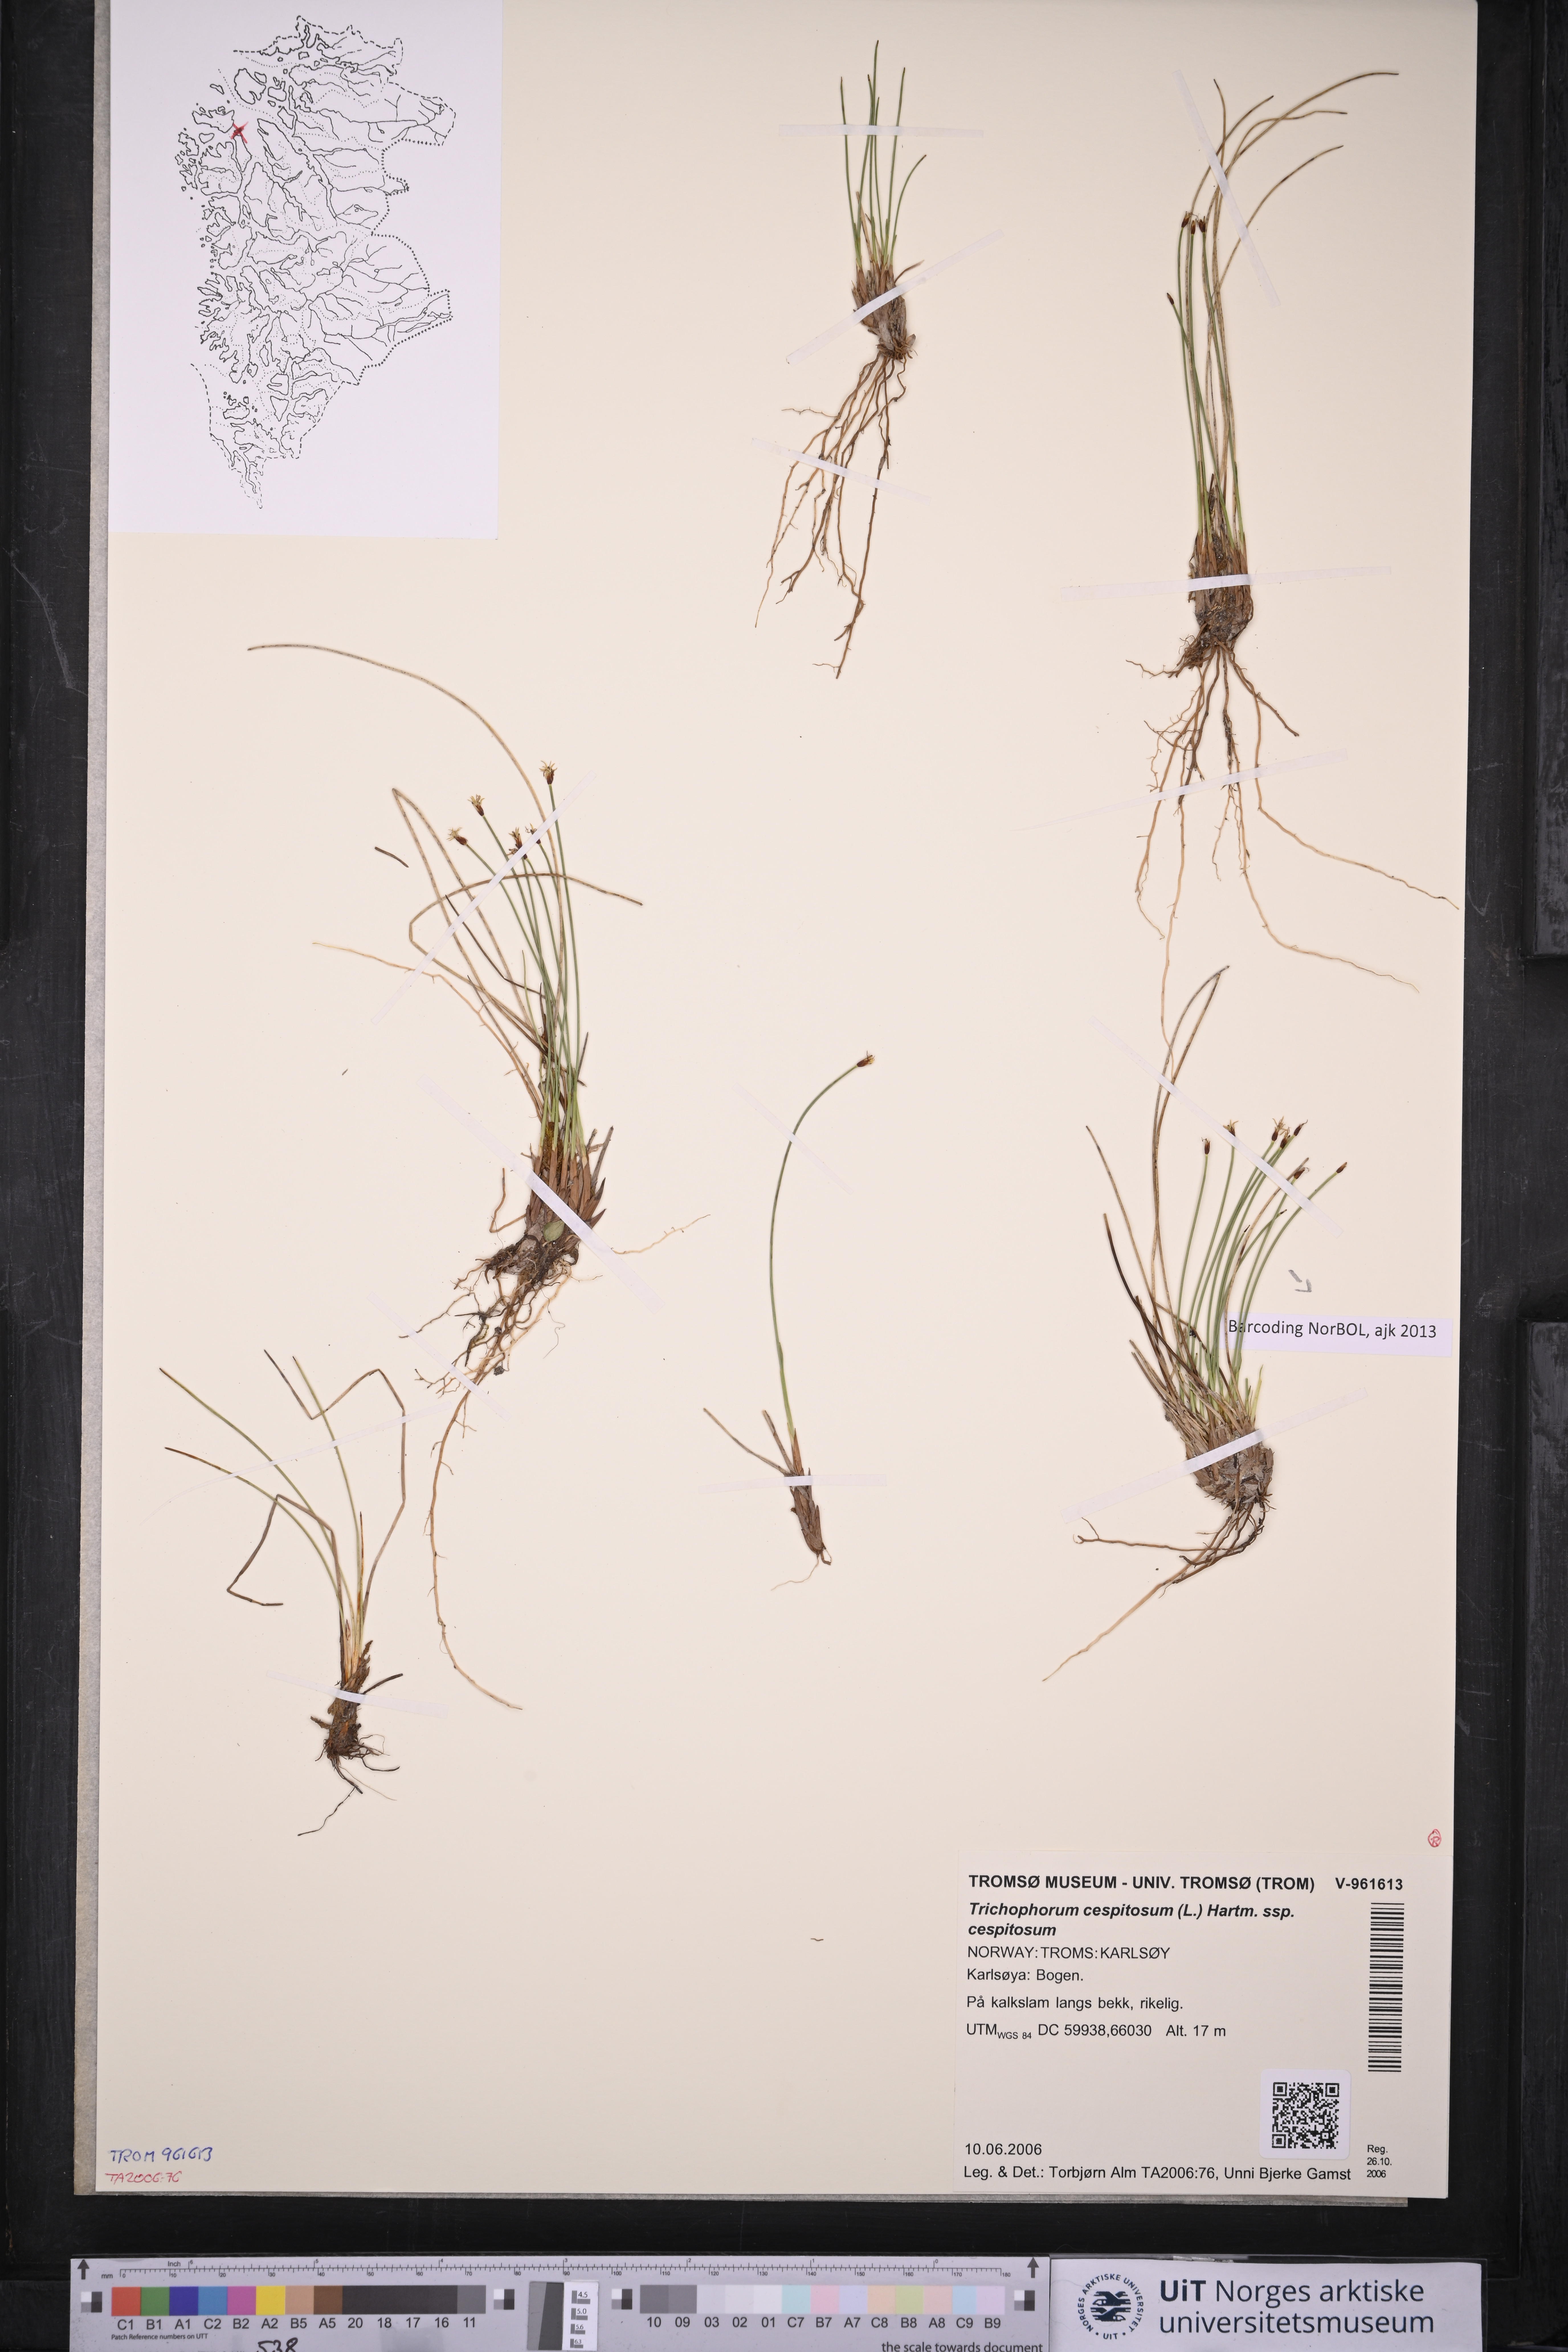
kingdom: Plantae
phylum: Tracheophyta
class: Liliopsida
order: Poales
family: Cyperaceae
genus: Trichophorum
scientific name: Trichophorum cespitosum
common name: Cespitose bulrush
